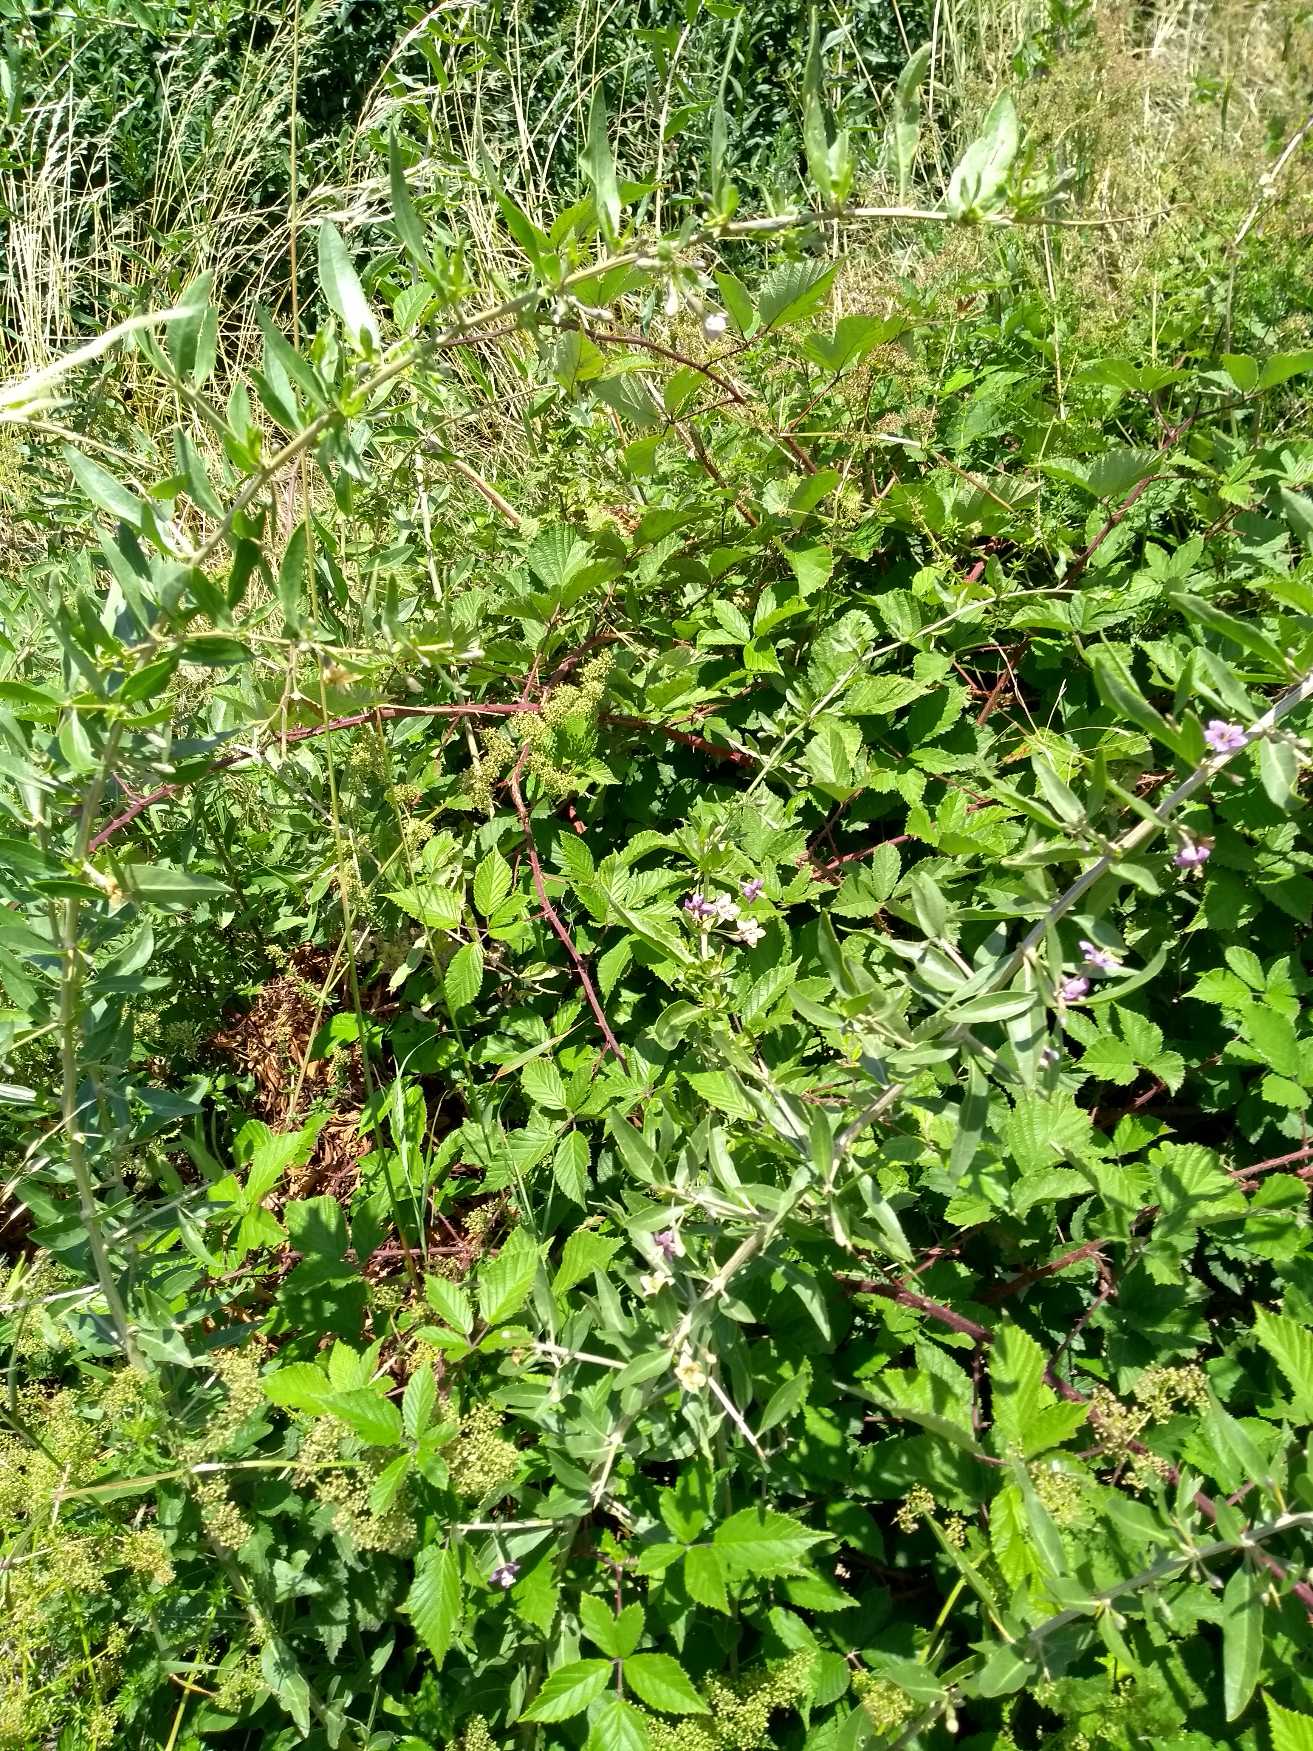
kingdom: Plantae
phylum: Tracheophyta
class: Magnoliopsida
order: Solanales
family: Solanaceae
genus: Lycium
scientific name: Lycium barbarum
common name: Bukketorn
